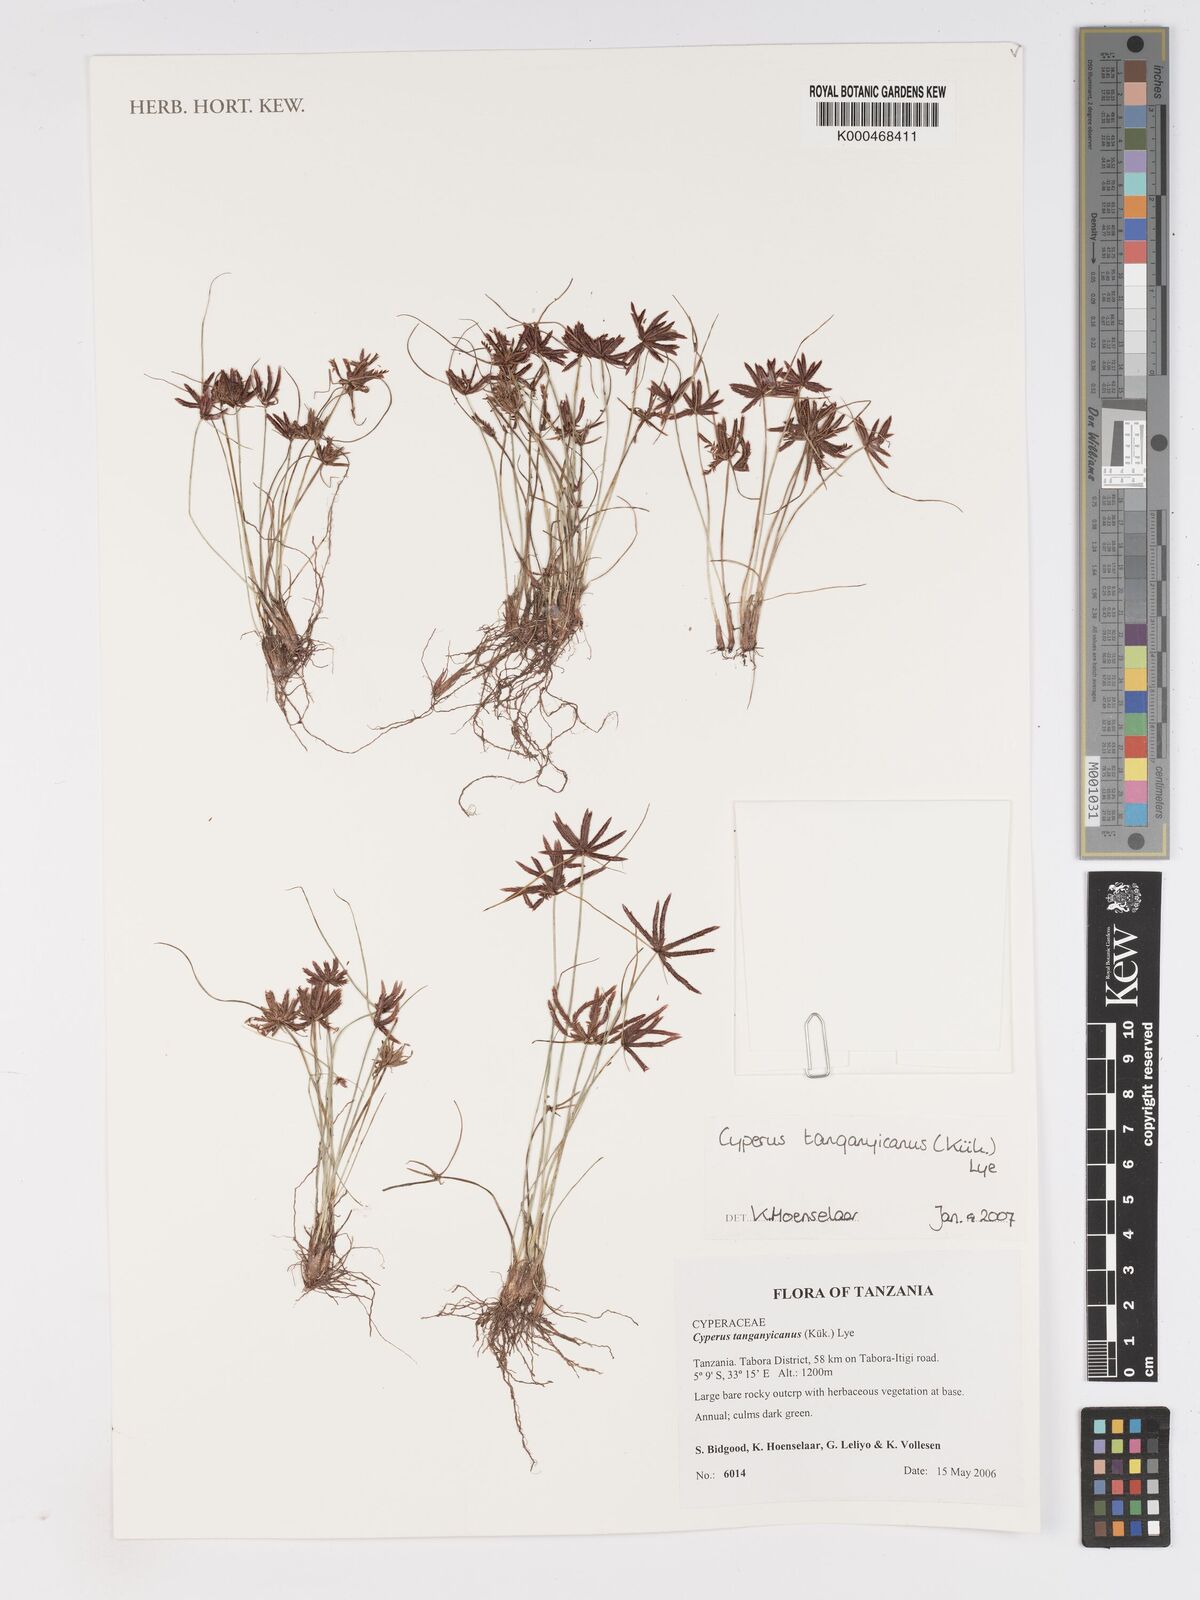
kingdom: Plantae
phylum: Tracheophyta
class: Liliopsida
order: Poales
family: Cyperaceae
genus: Cyperus
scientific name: Cyperus
